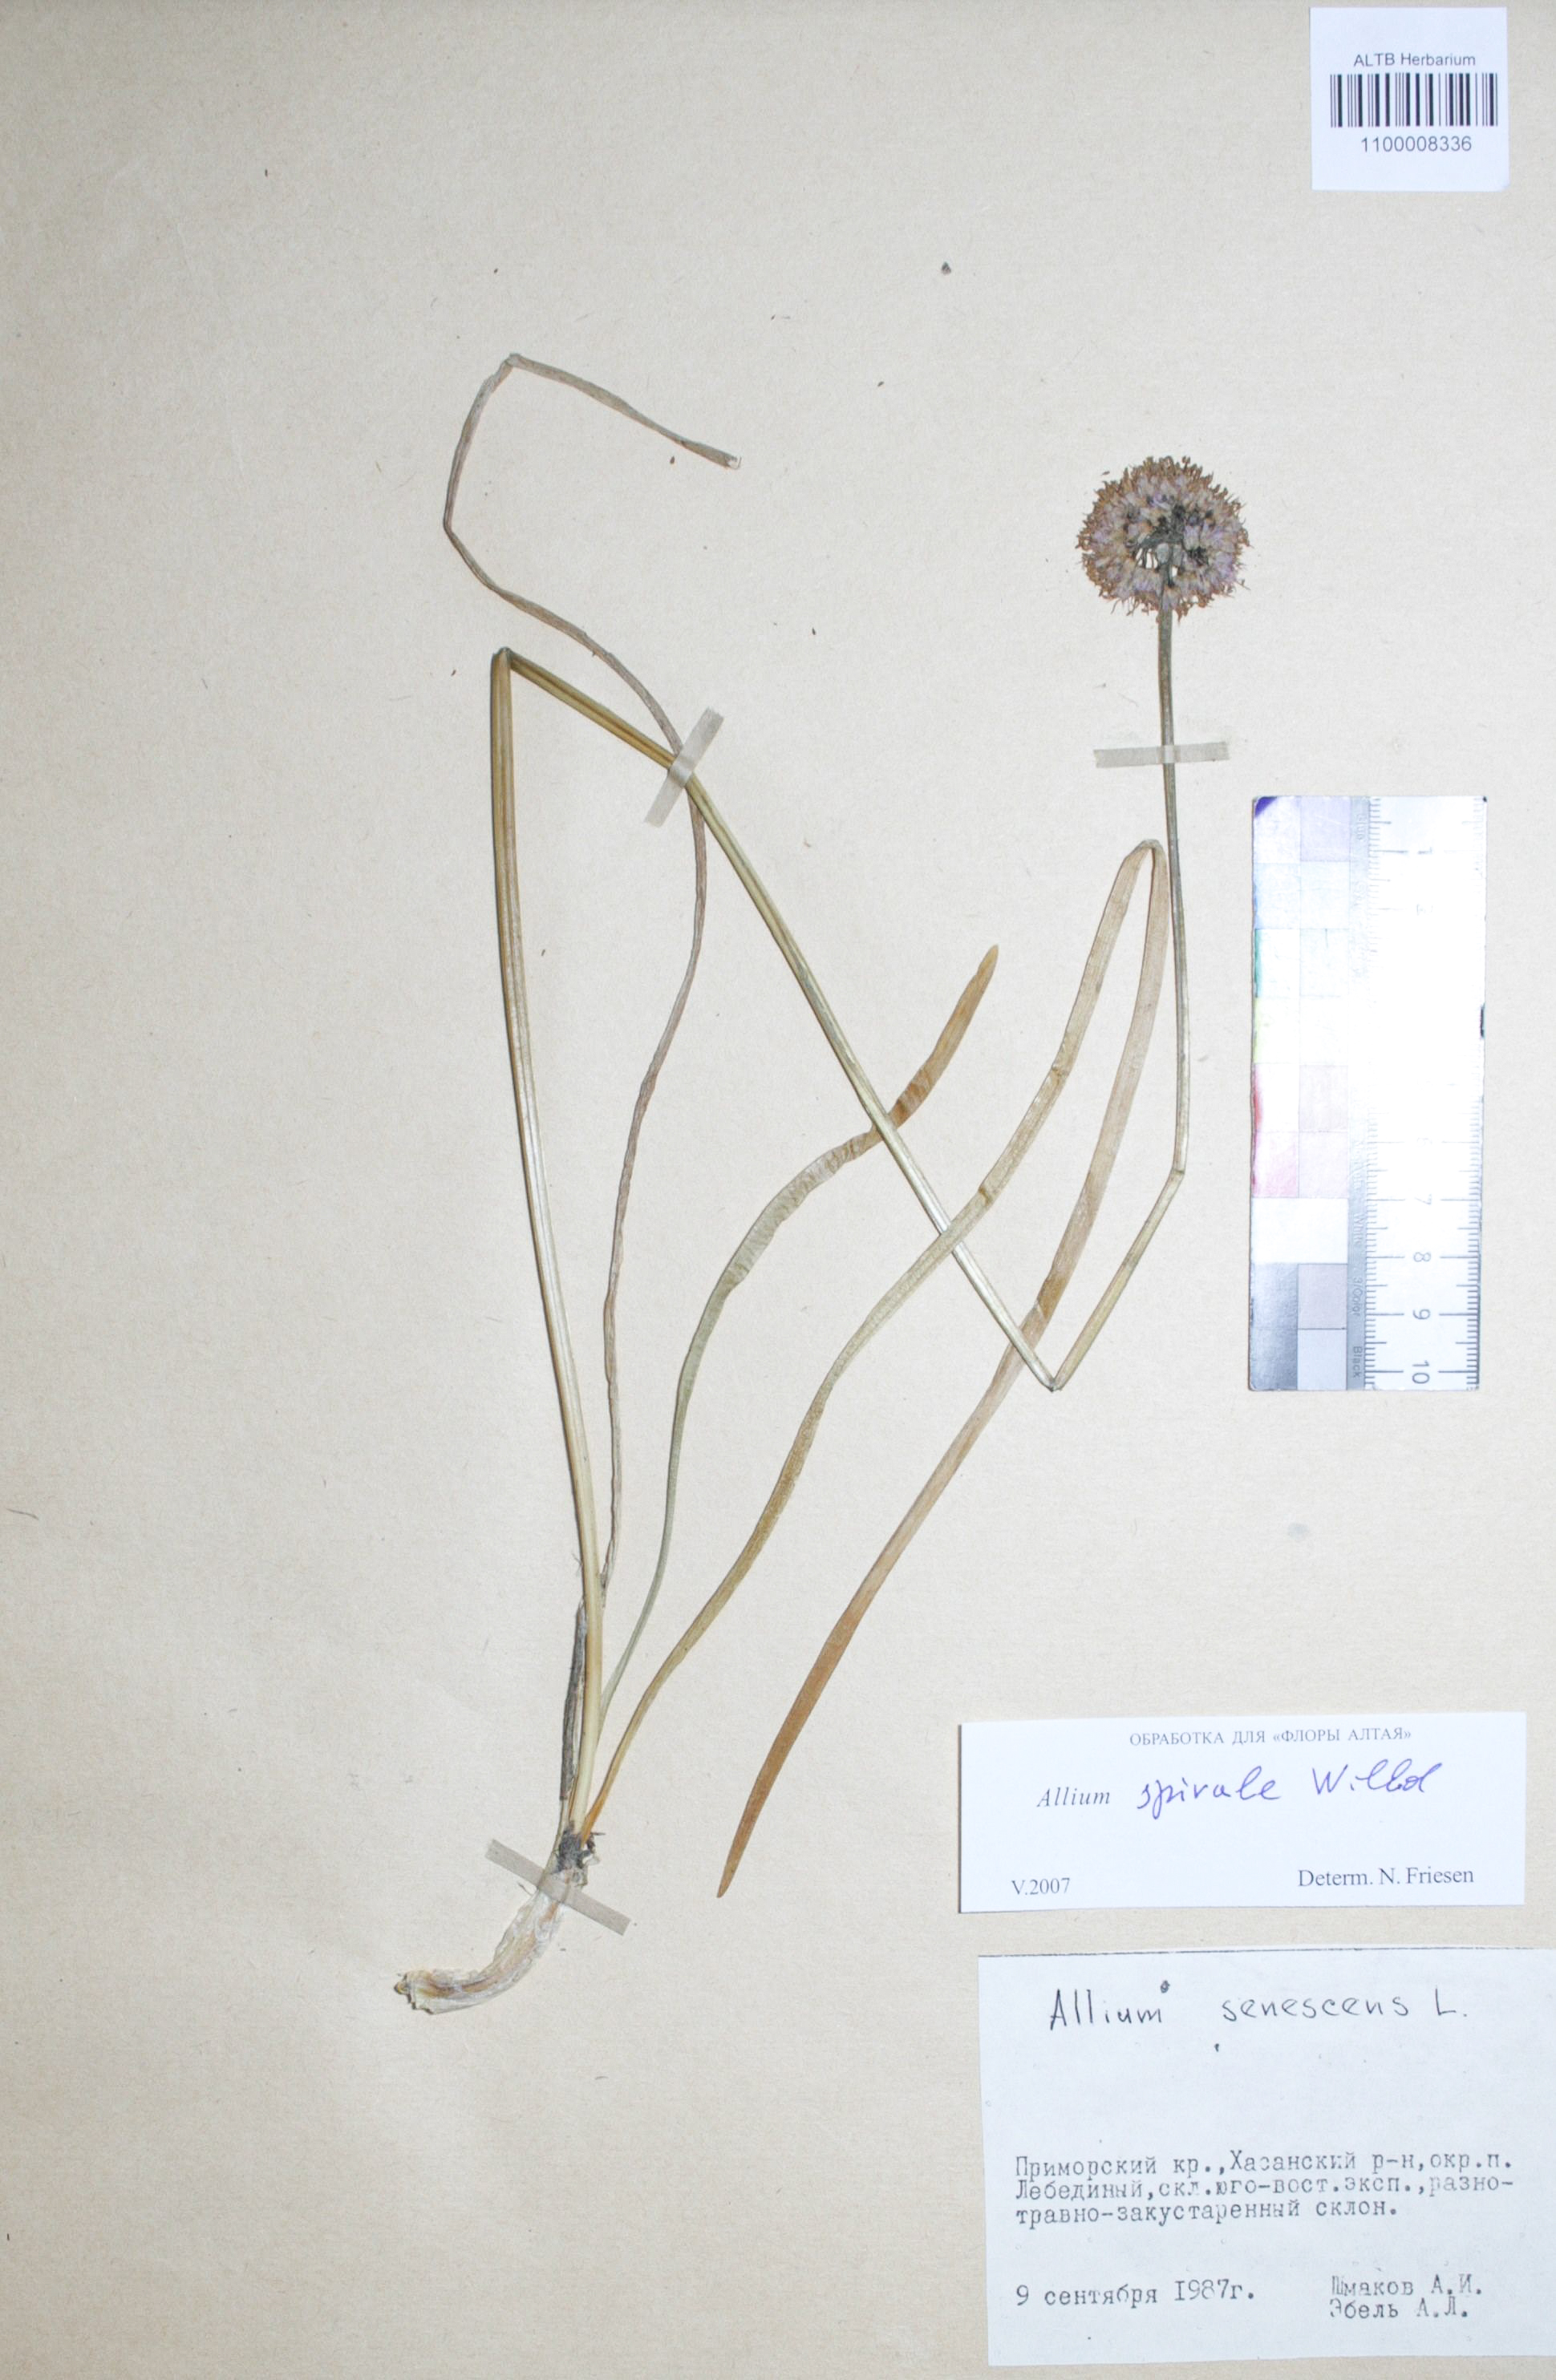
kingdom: Plantae
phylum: Tracheophyta
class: Liliopsida
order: Asparagales
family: Amaryllidaceae
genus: Allium
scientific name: Allium spirale
